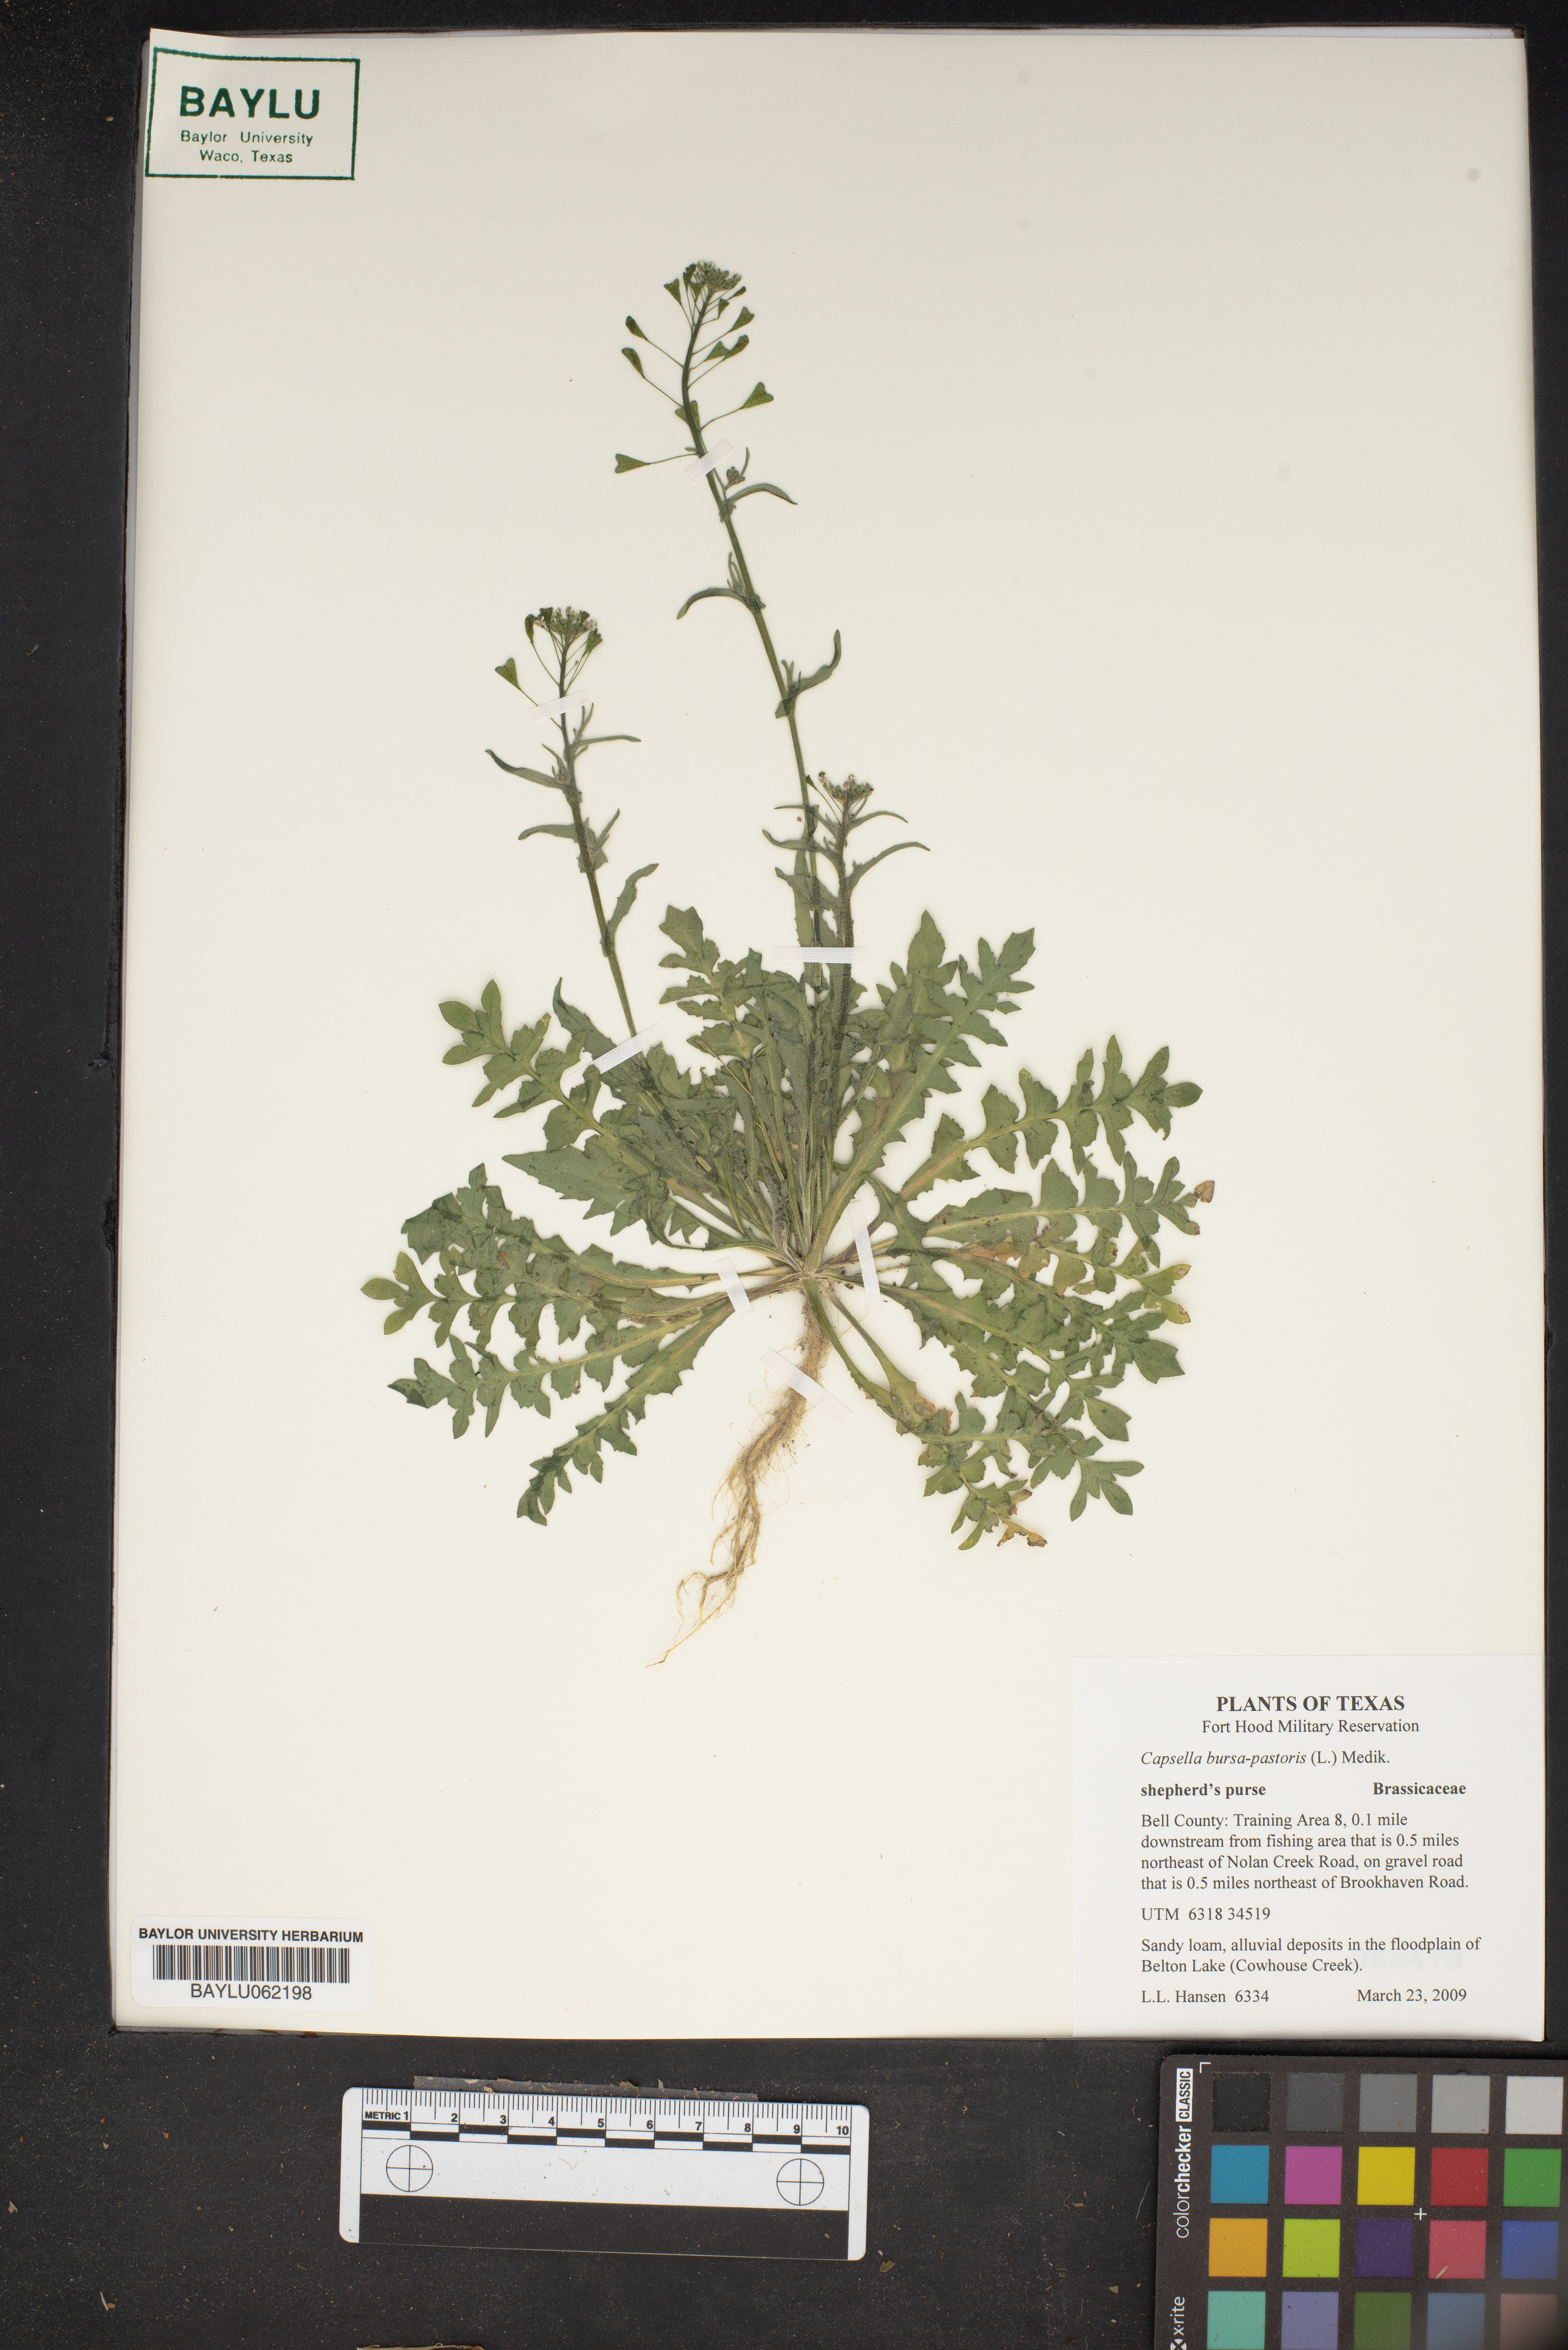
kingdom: Plantae
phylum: Tracheophyta
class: Magnoliopsida
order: Brassicales
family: Brassicaceae
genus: Capsella
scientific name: Capsella bursa-pastoris
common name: Shepherd's purse
